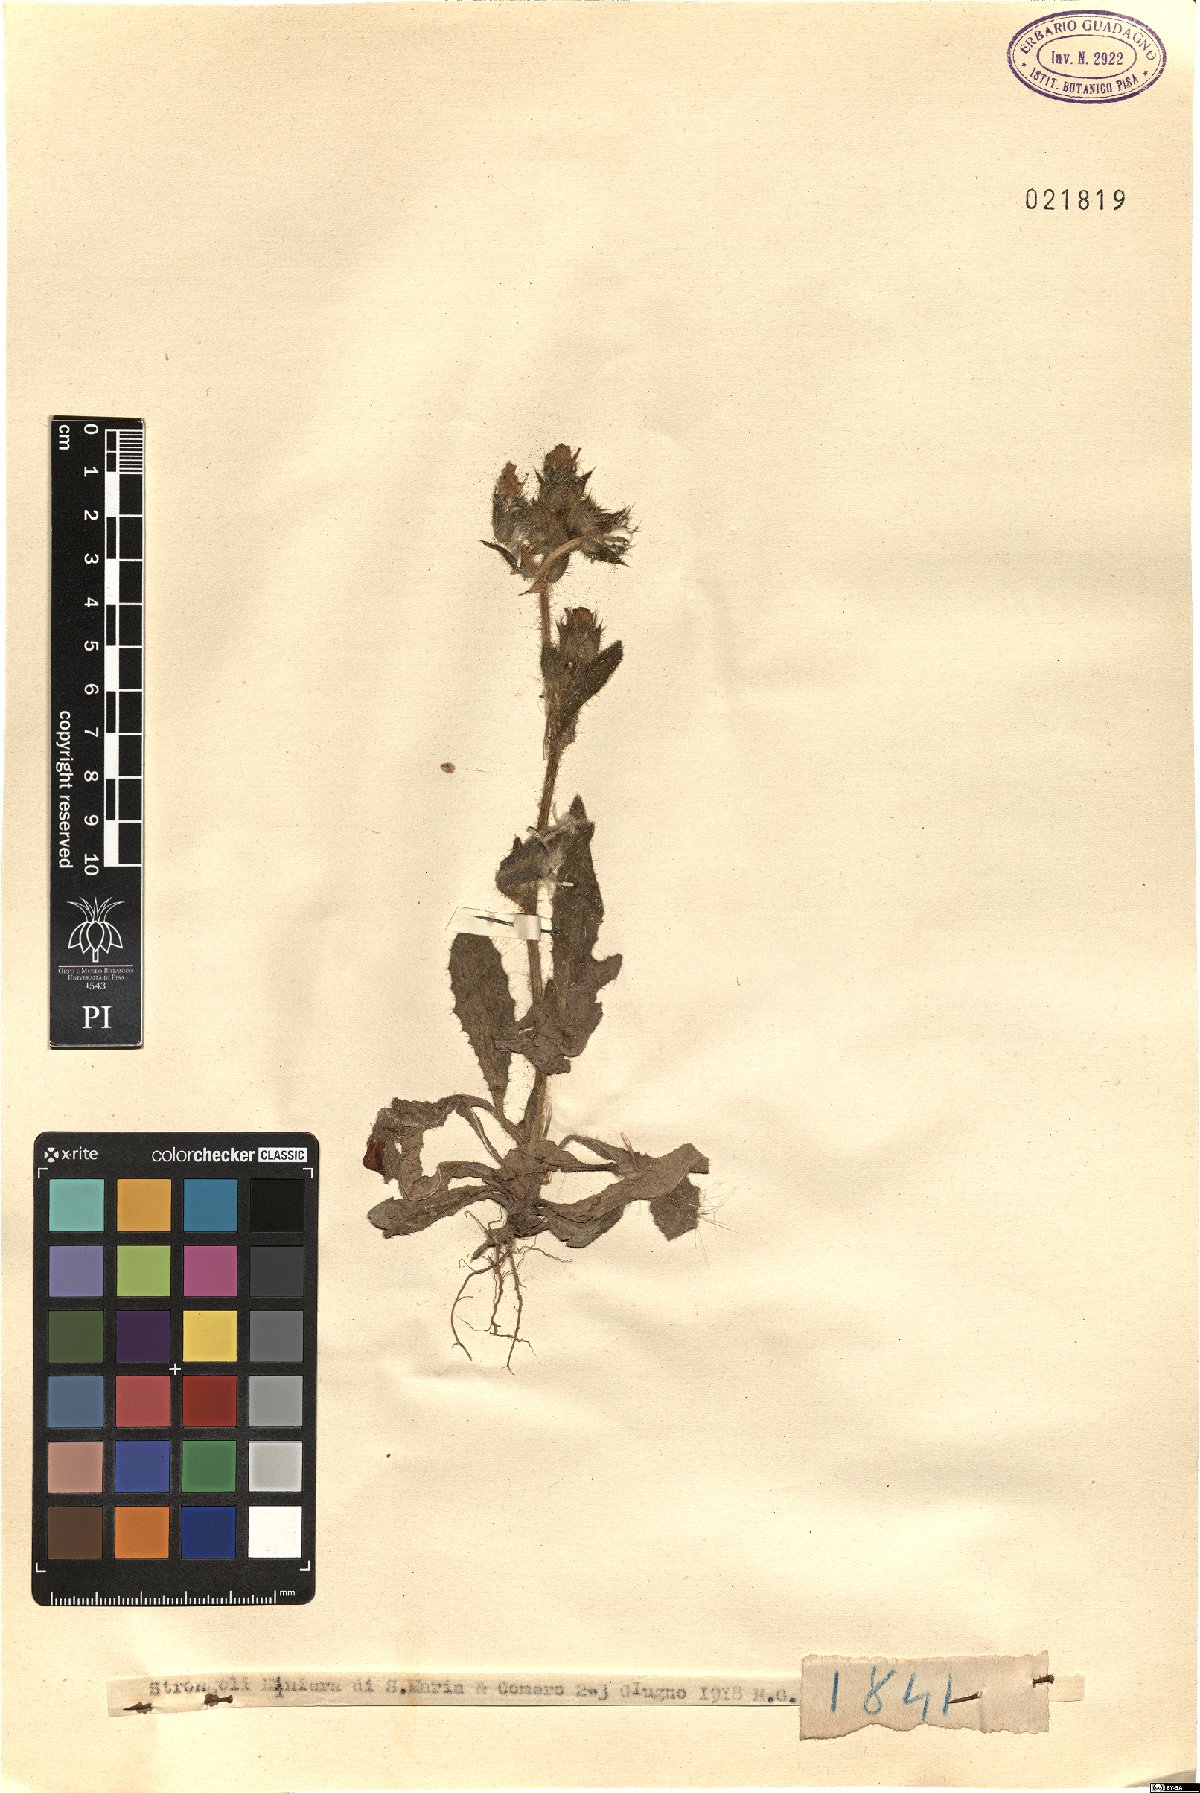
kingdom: Plantae
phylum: Tracheophyta
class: Magnoliopsida
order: Asterales
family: Asteraceae
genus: Picris
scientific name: Picris
